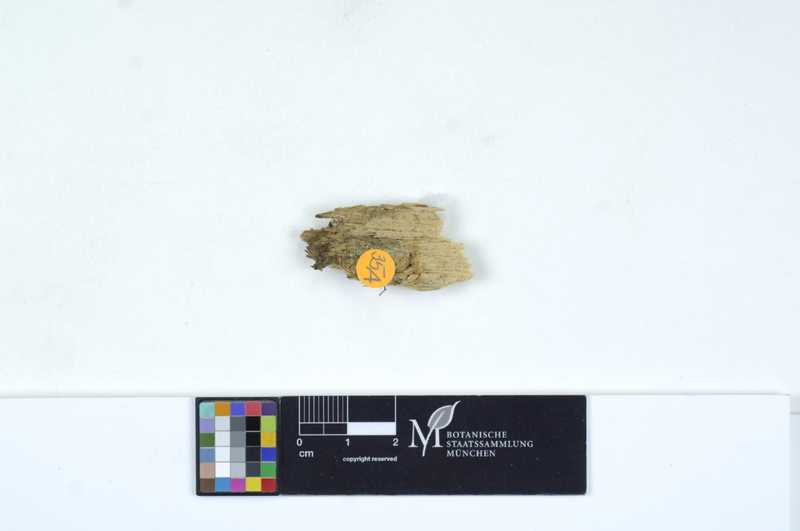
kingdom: Fungi
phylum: Basidiomycota
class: Agaricomycetes
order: Cantharellales
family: Tulasnellaceae
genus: Tulasnella
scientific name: Tulasnella allantospora
